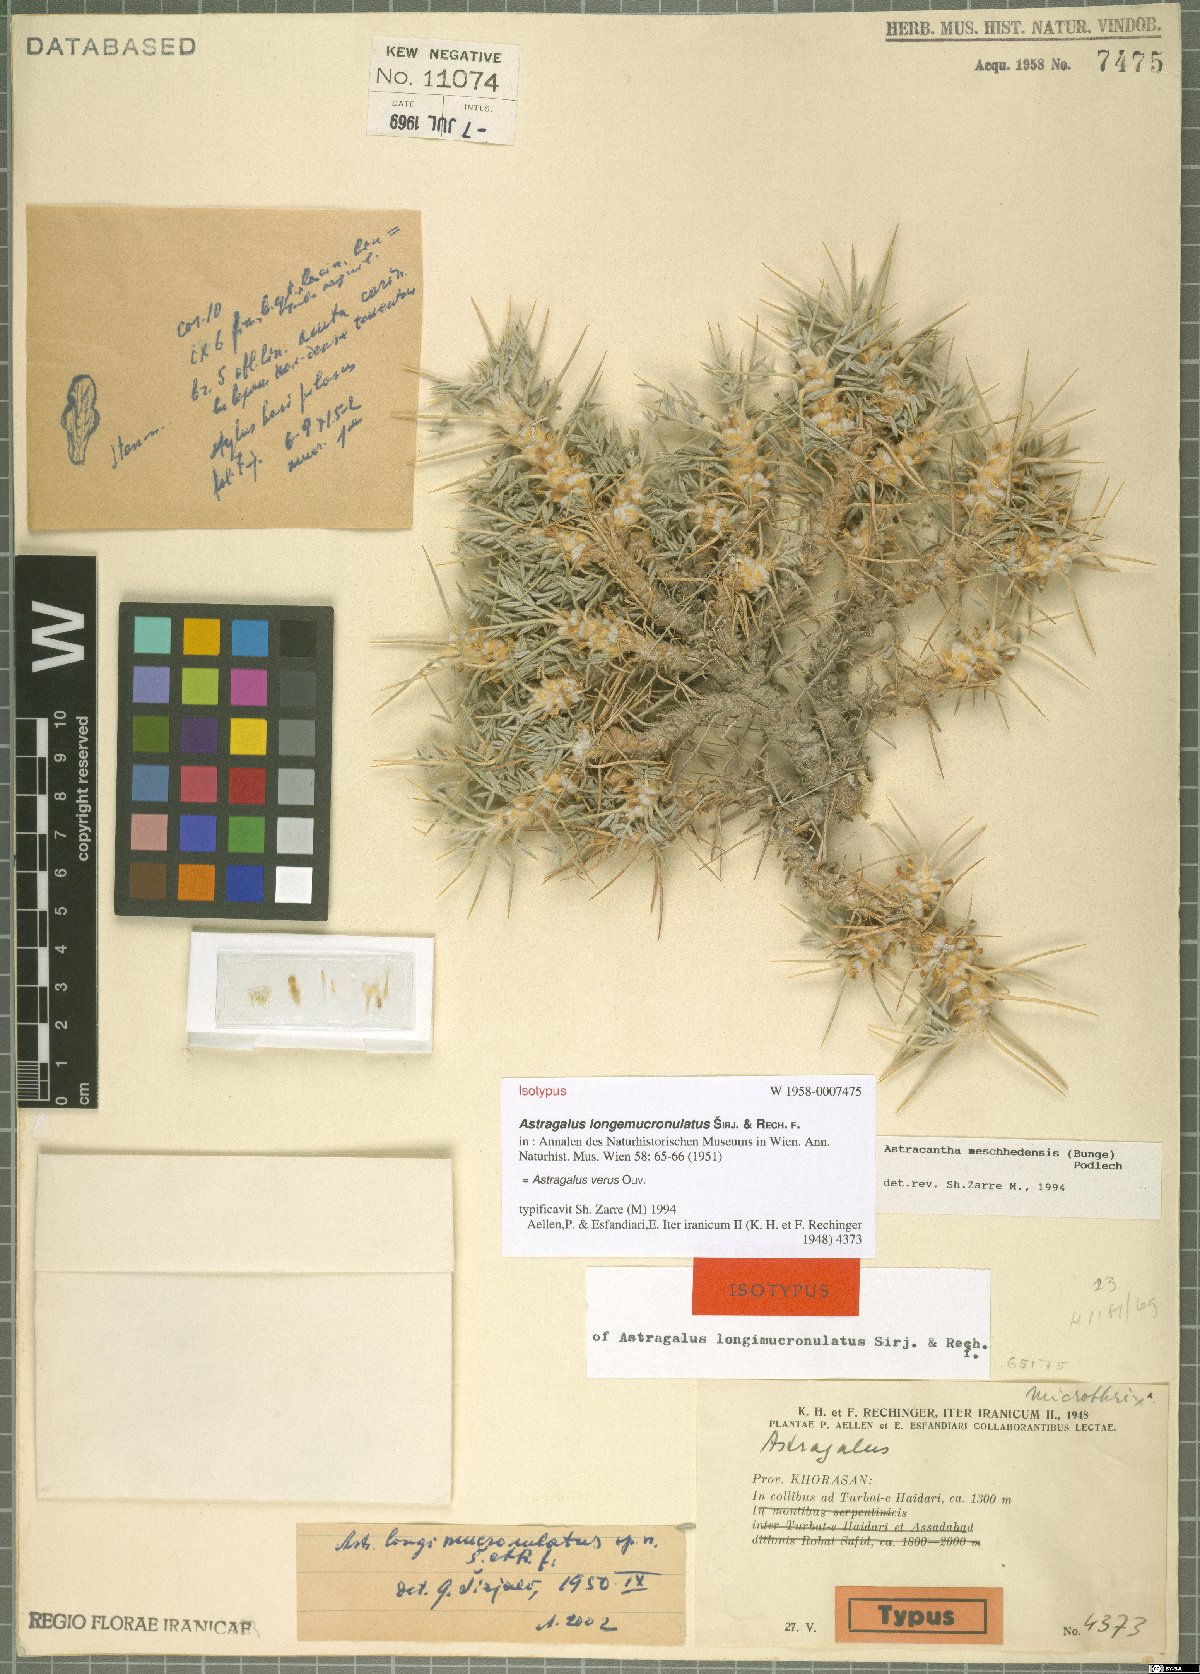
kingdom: Plantae
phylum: Tracheophyta
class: Magnoliopsida
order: Fabales
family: Fabaceae
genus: Astragalus
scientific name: Astragalus verus
